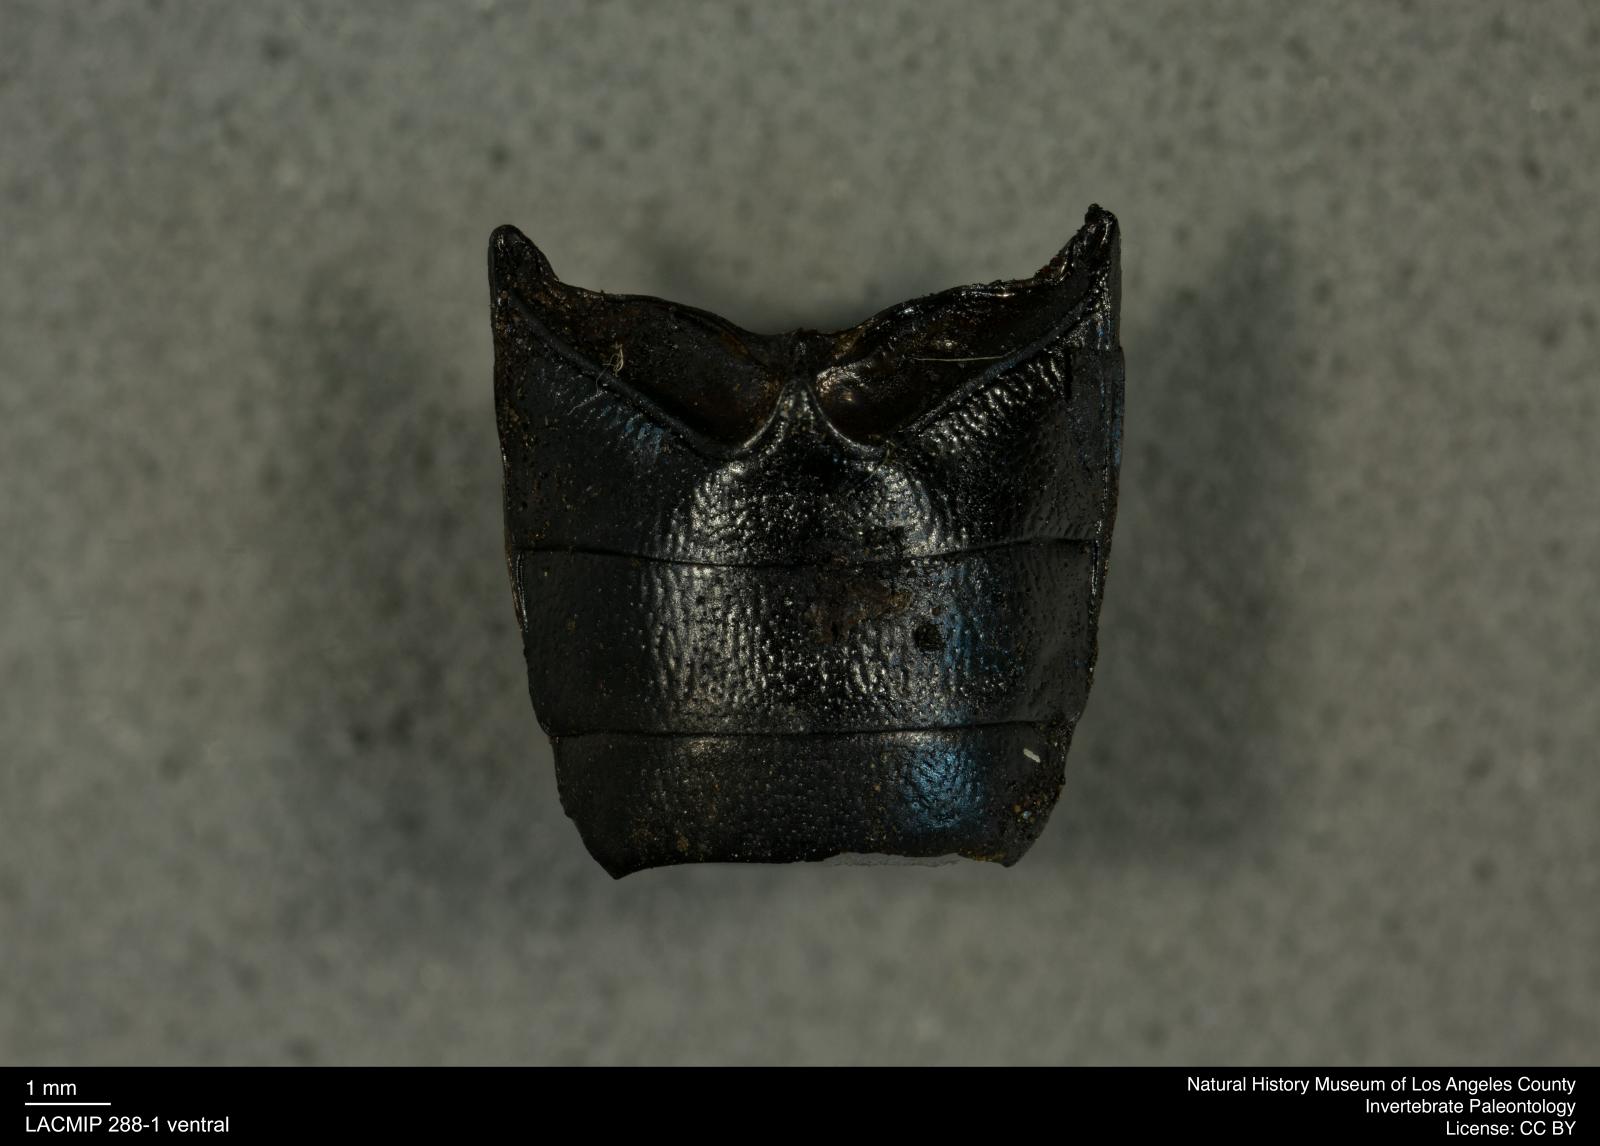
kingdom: Animalia
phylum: Arthropoda
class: Insecta
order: Coleoptera
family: Tenebrionidae
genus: Coniontis
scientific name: Coniontis abdominalis
